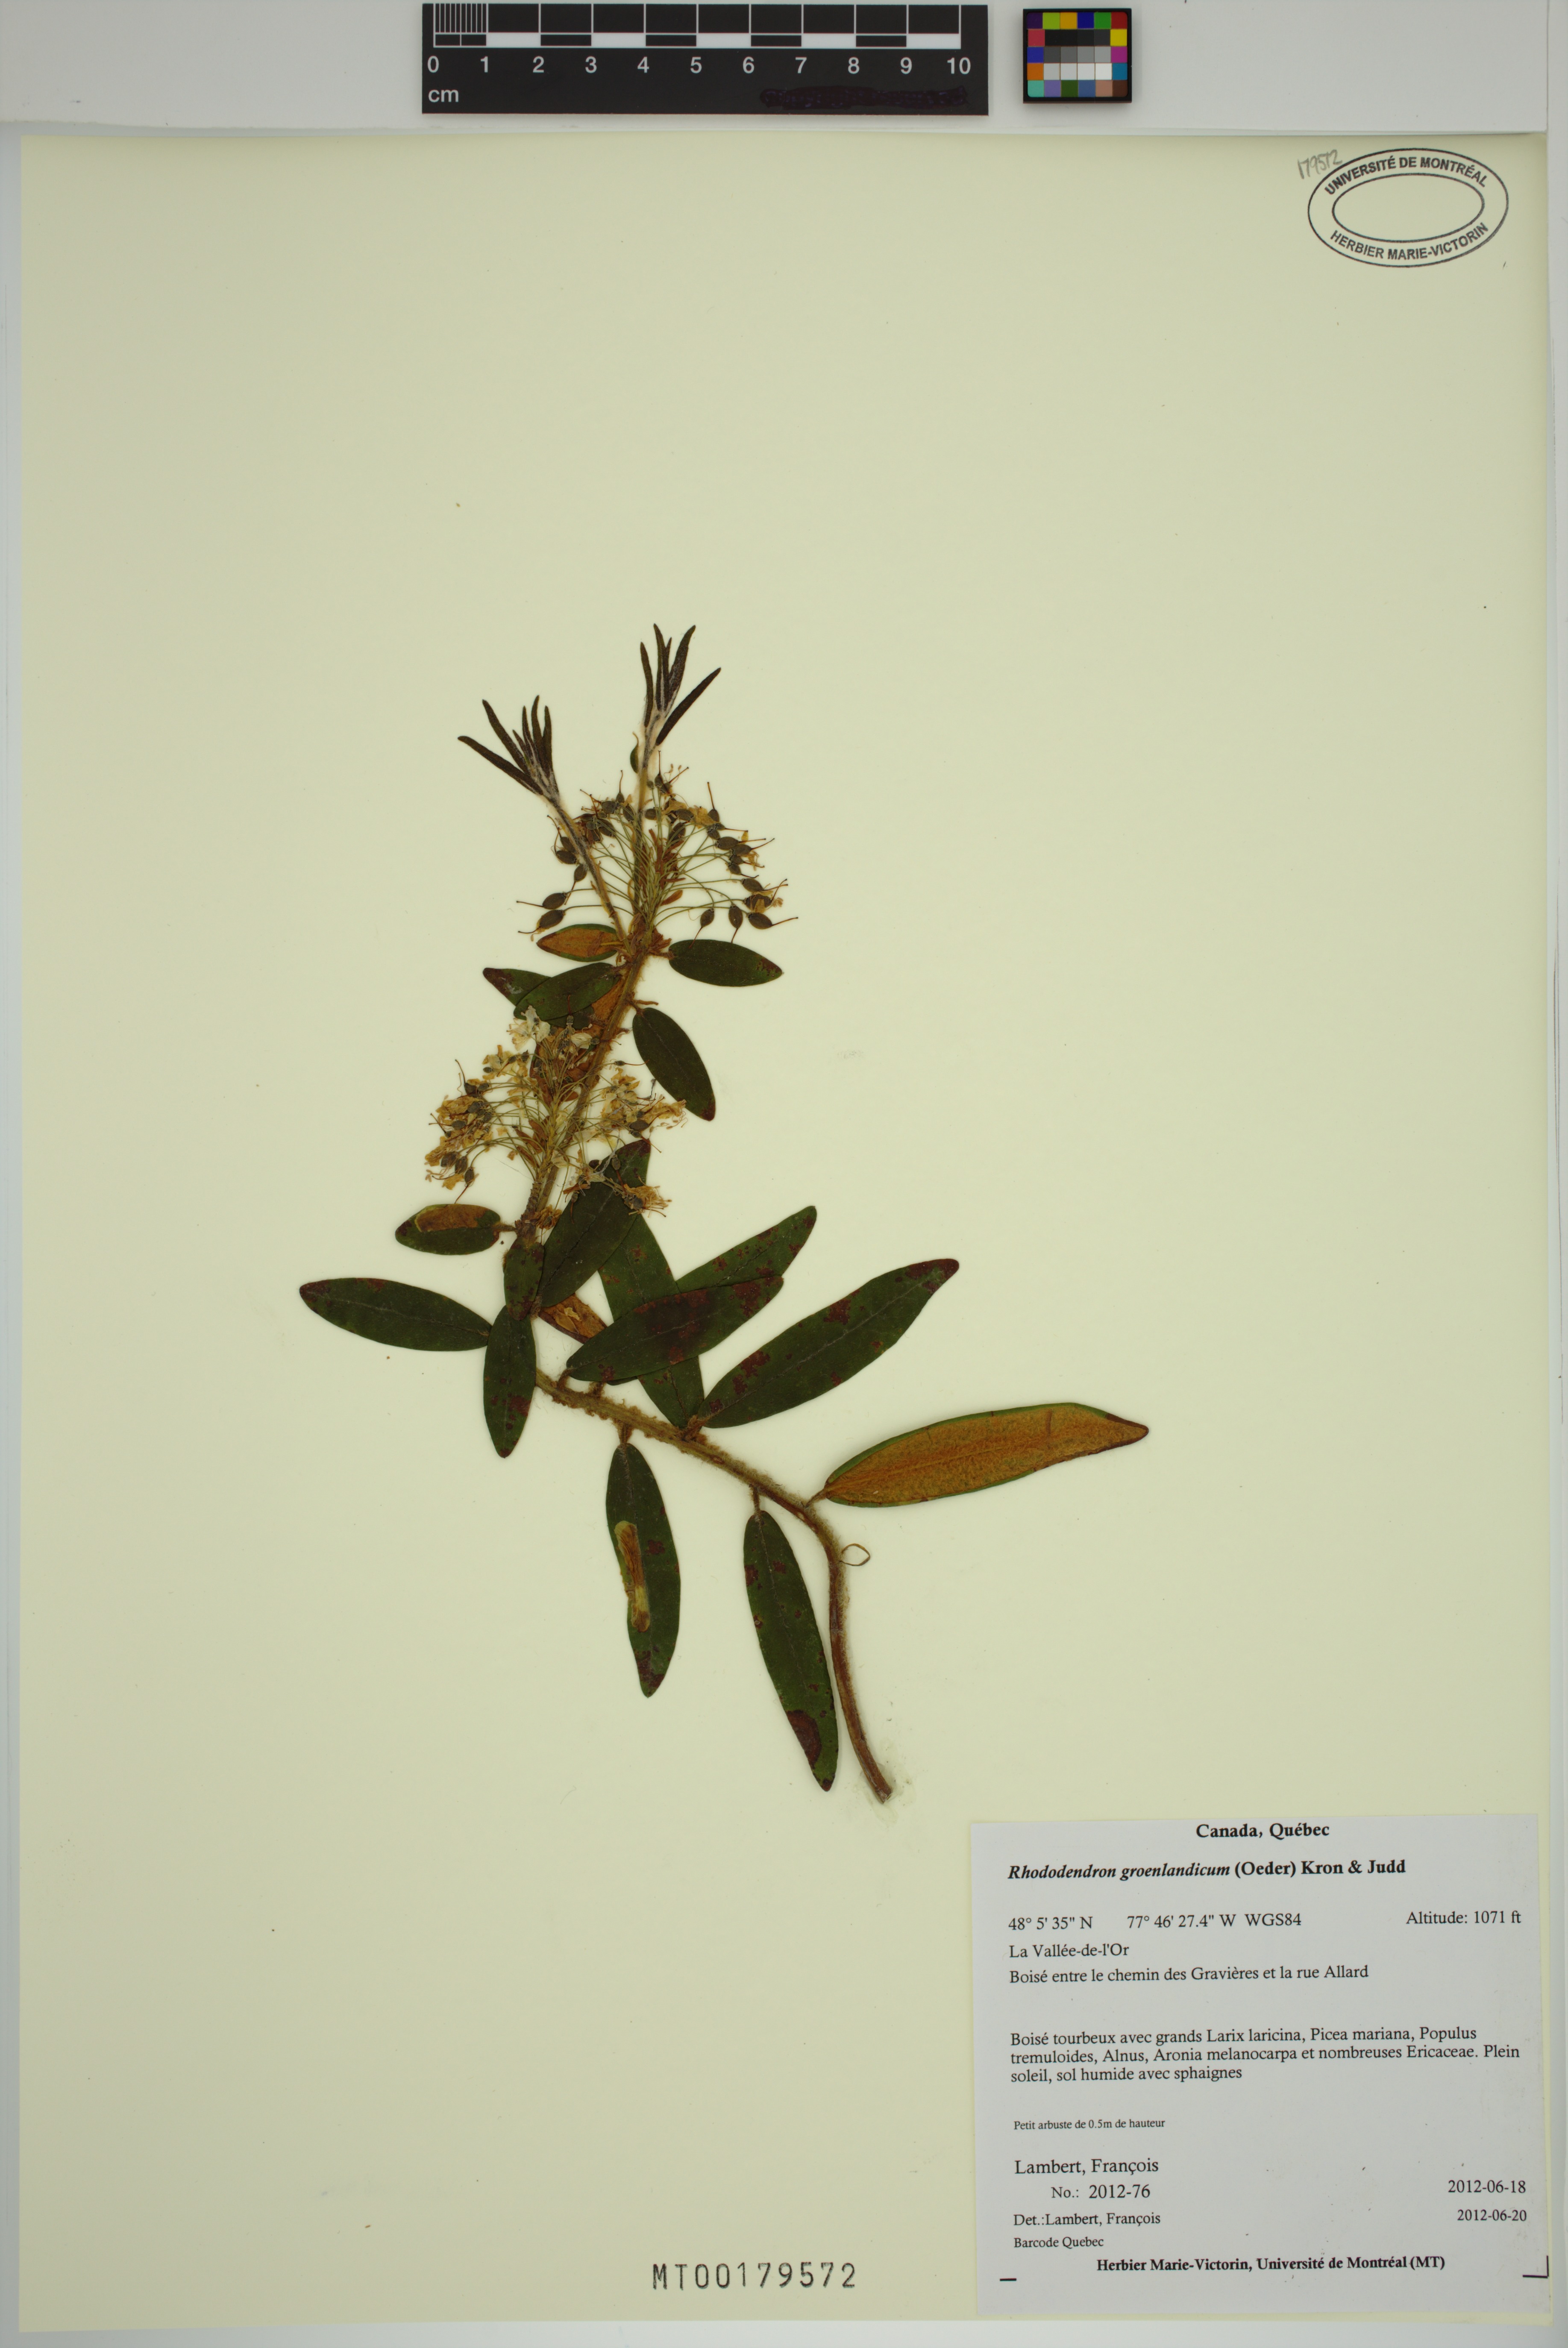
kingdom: Plantae
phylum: Tracheophyta
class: Magnoliopsida
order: Ericales
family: Ericaceae
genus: Rhododendron
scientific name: Rhododendron groenlandicum
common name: Bog labrador tea
